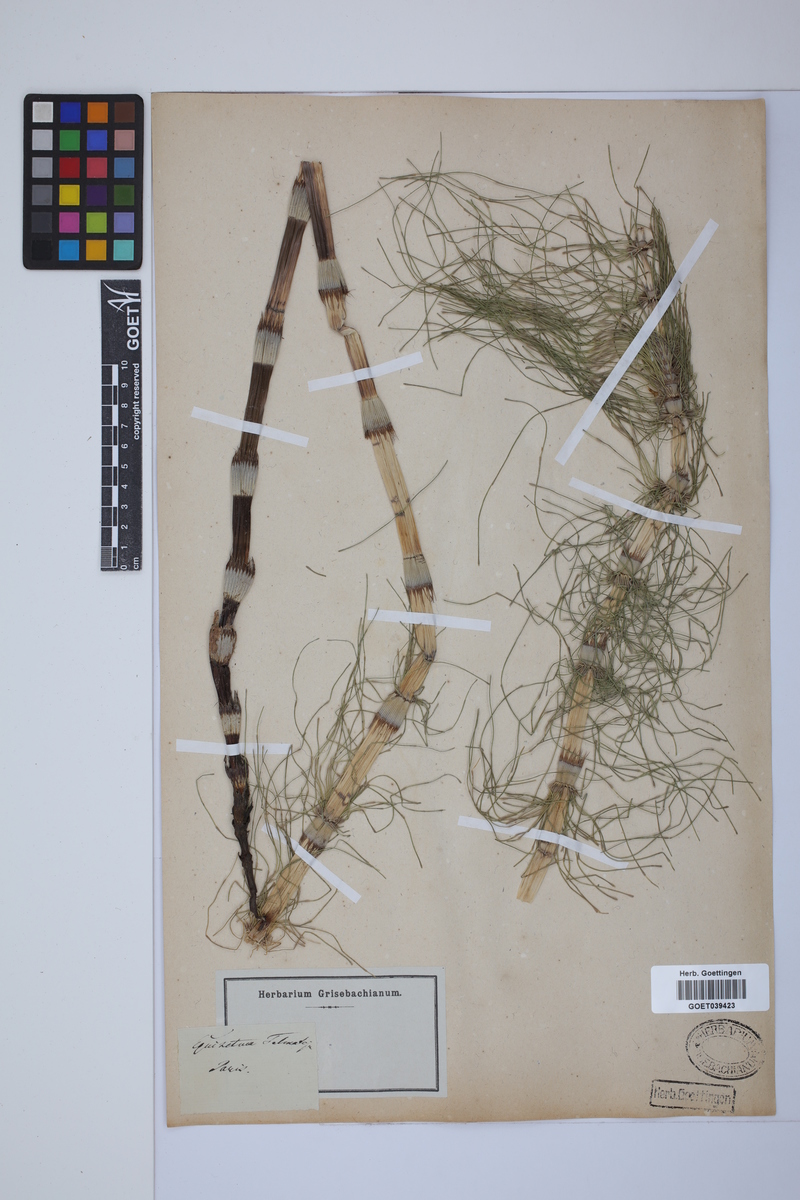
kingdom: Plantae
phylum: Tracheophyta
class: Polypodiopsida
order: Equisetales
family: Equisetaceae
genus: Equisetum
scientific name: Equisetum telmateia
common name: Great horsetail
